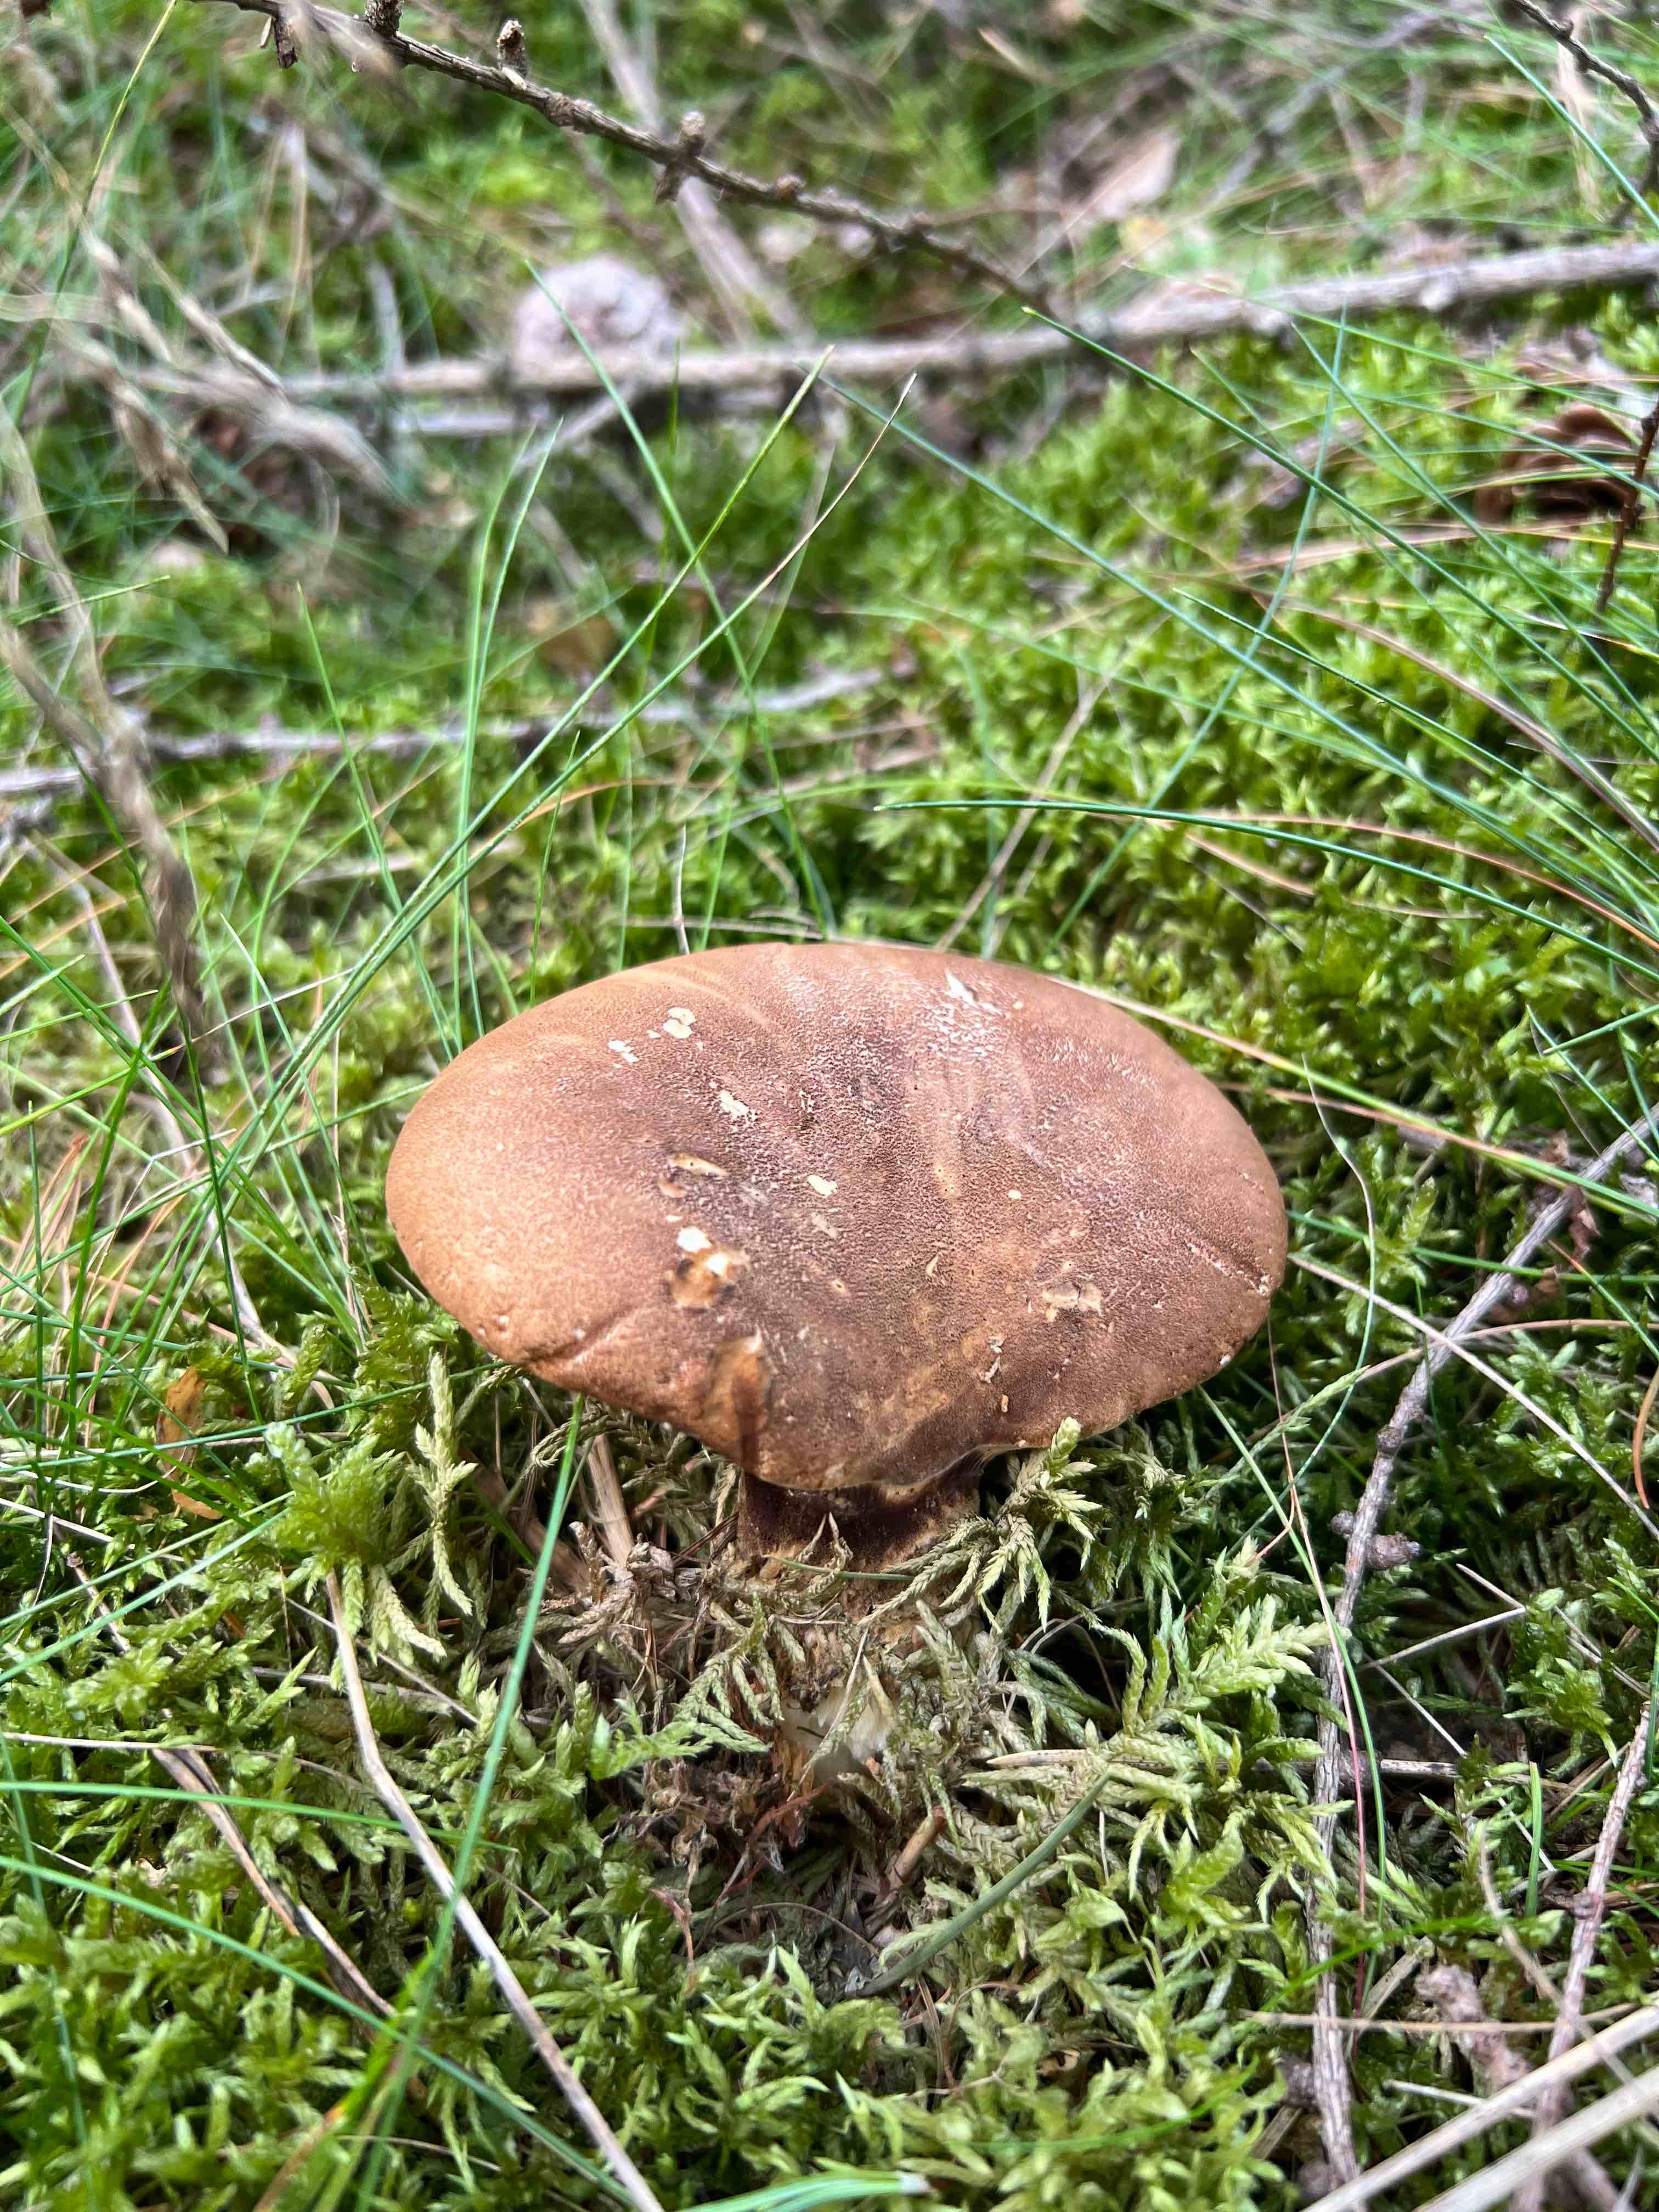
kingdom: Fungi
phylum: Basidiomycota
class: Agaricomycetes
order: Boletales
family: Tapinellaceae
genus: Tapinella
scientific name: Tapinella atrotomentosa
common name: sortfiltet viftesvamp
